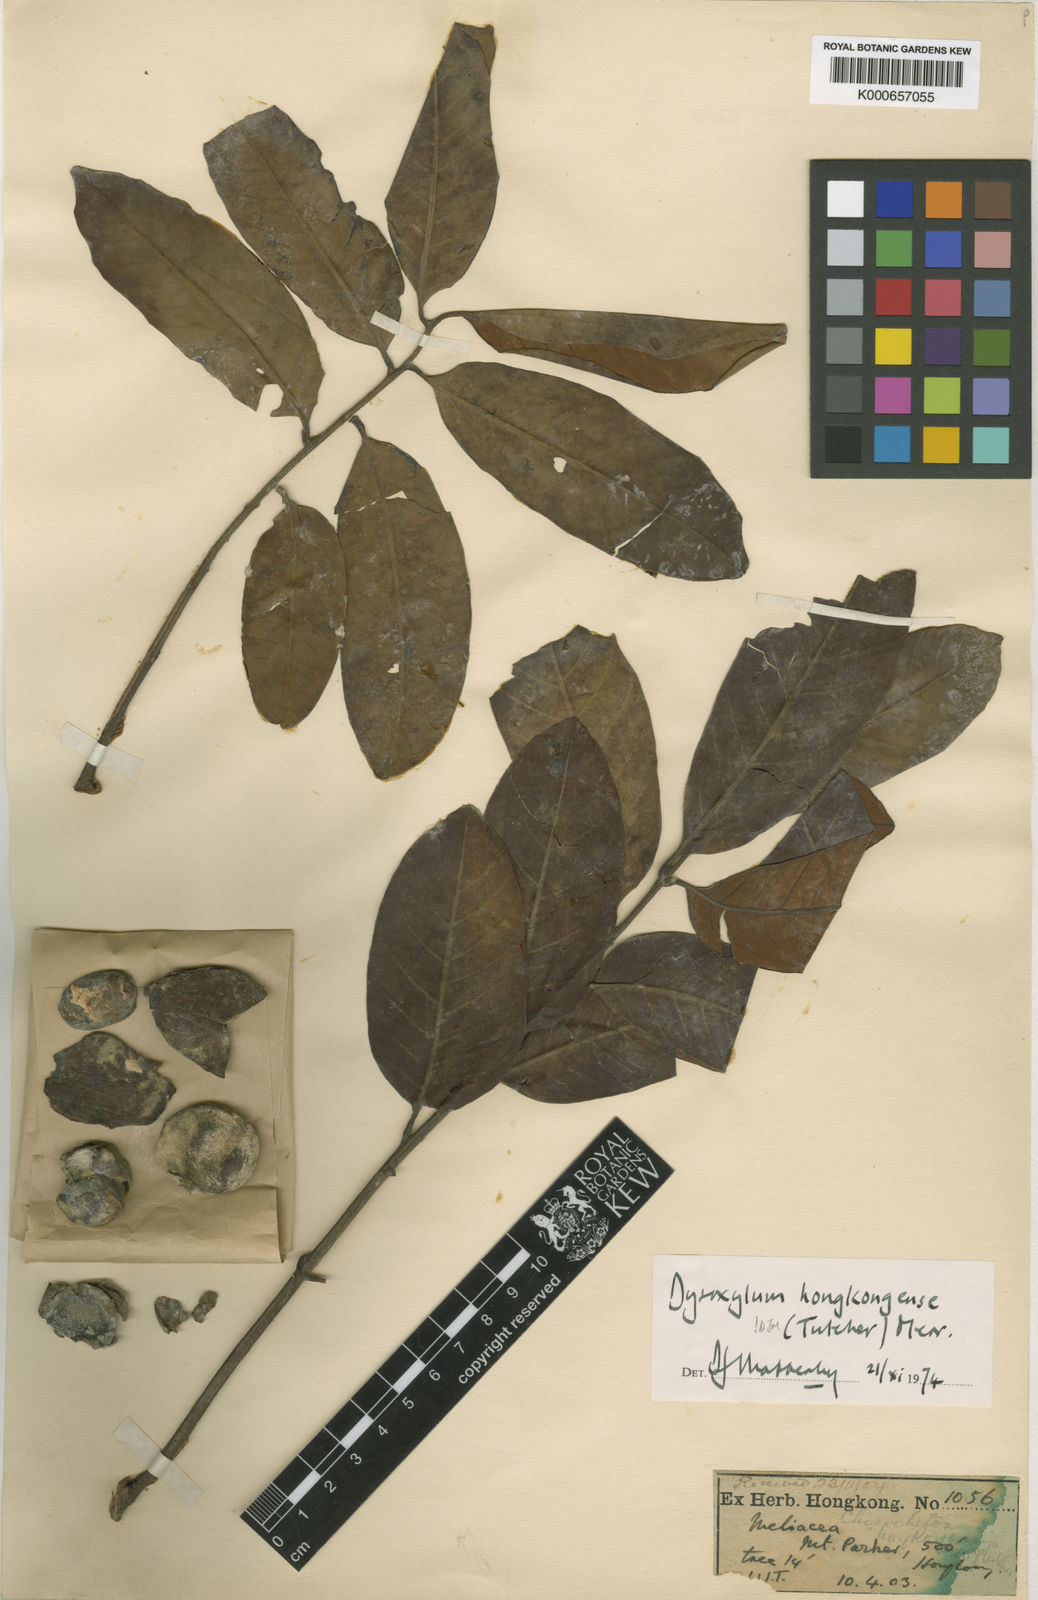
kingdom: Plantae
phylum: Tracheophyta
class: Magnoliopsida
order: Sapindales
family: Meliaceae
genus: Prasoxylon
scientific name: Prasoxylon hongkongense
